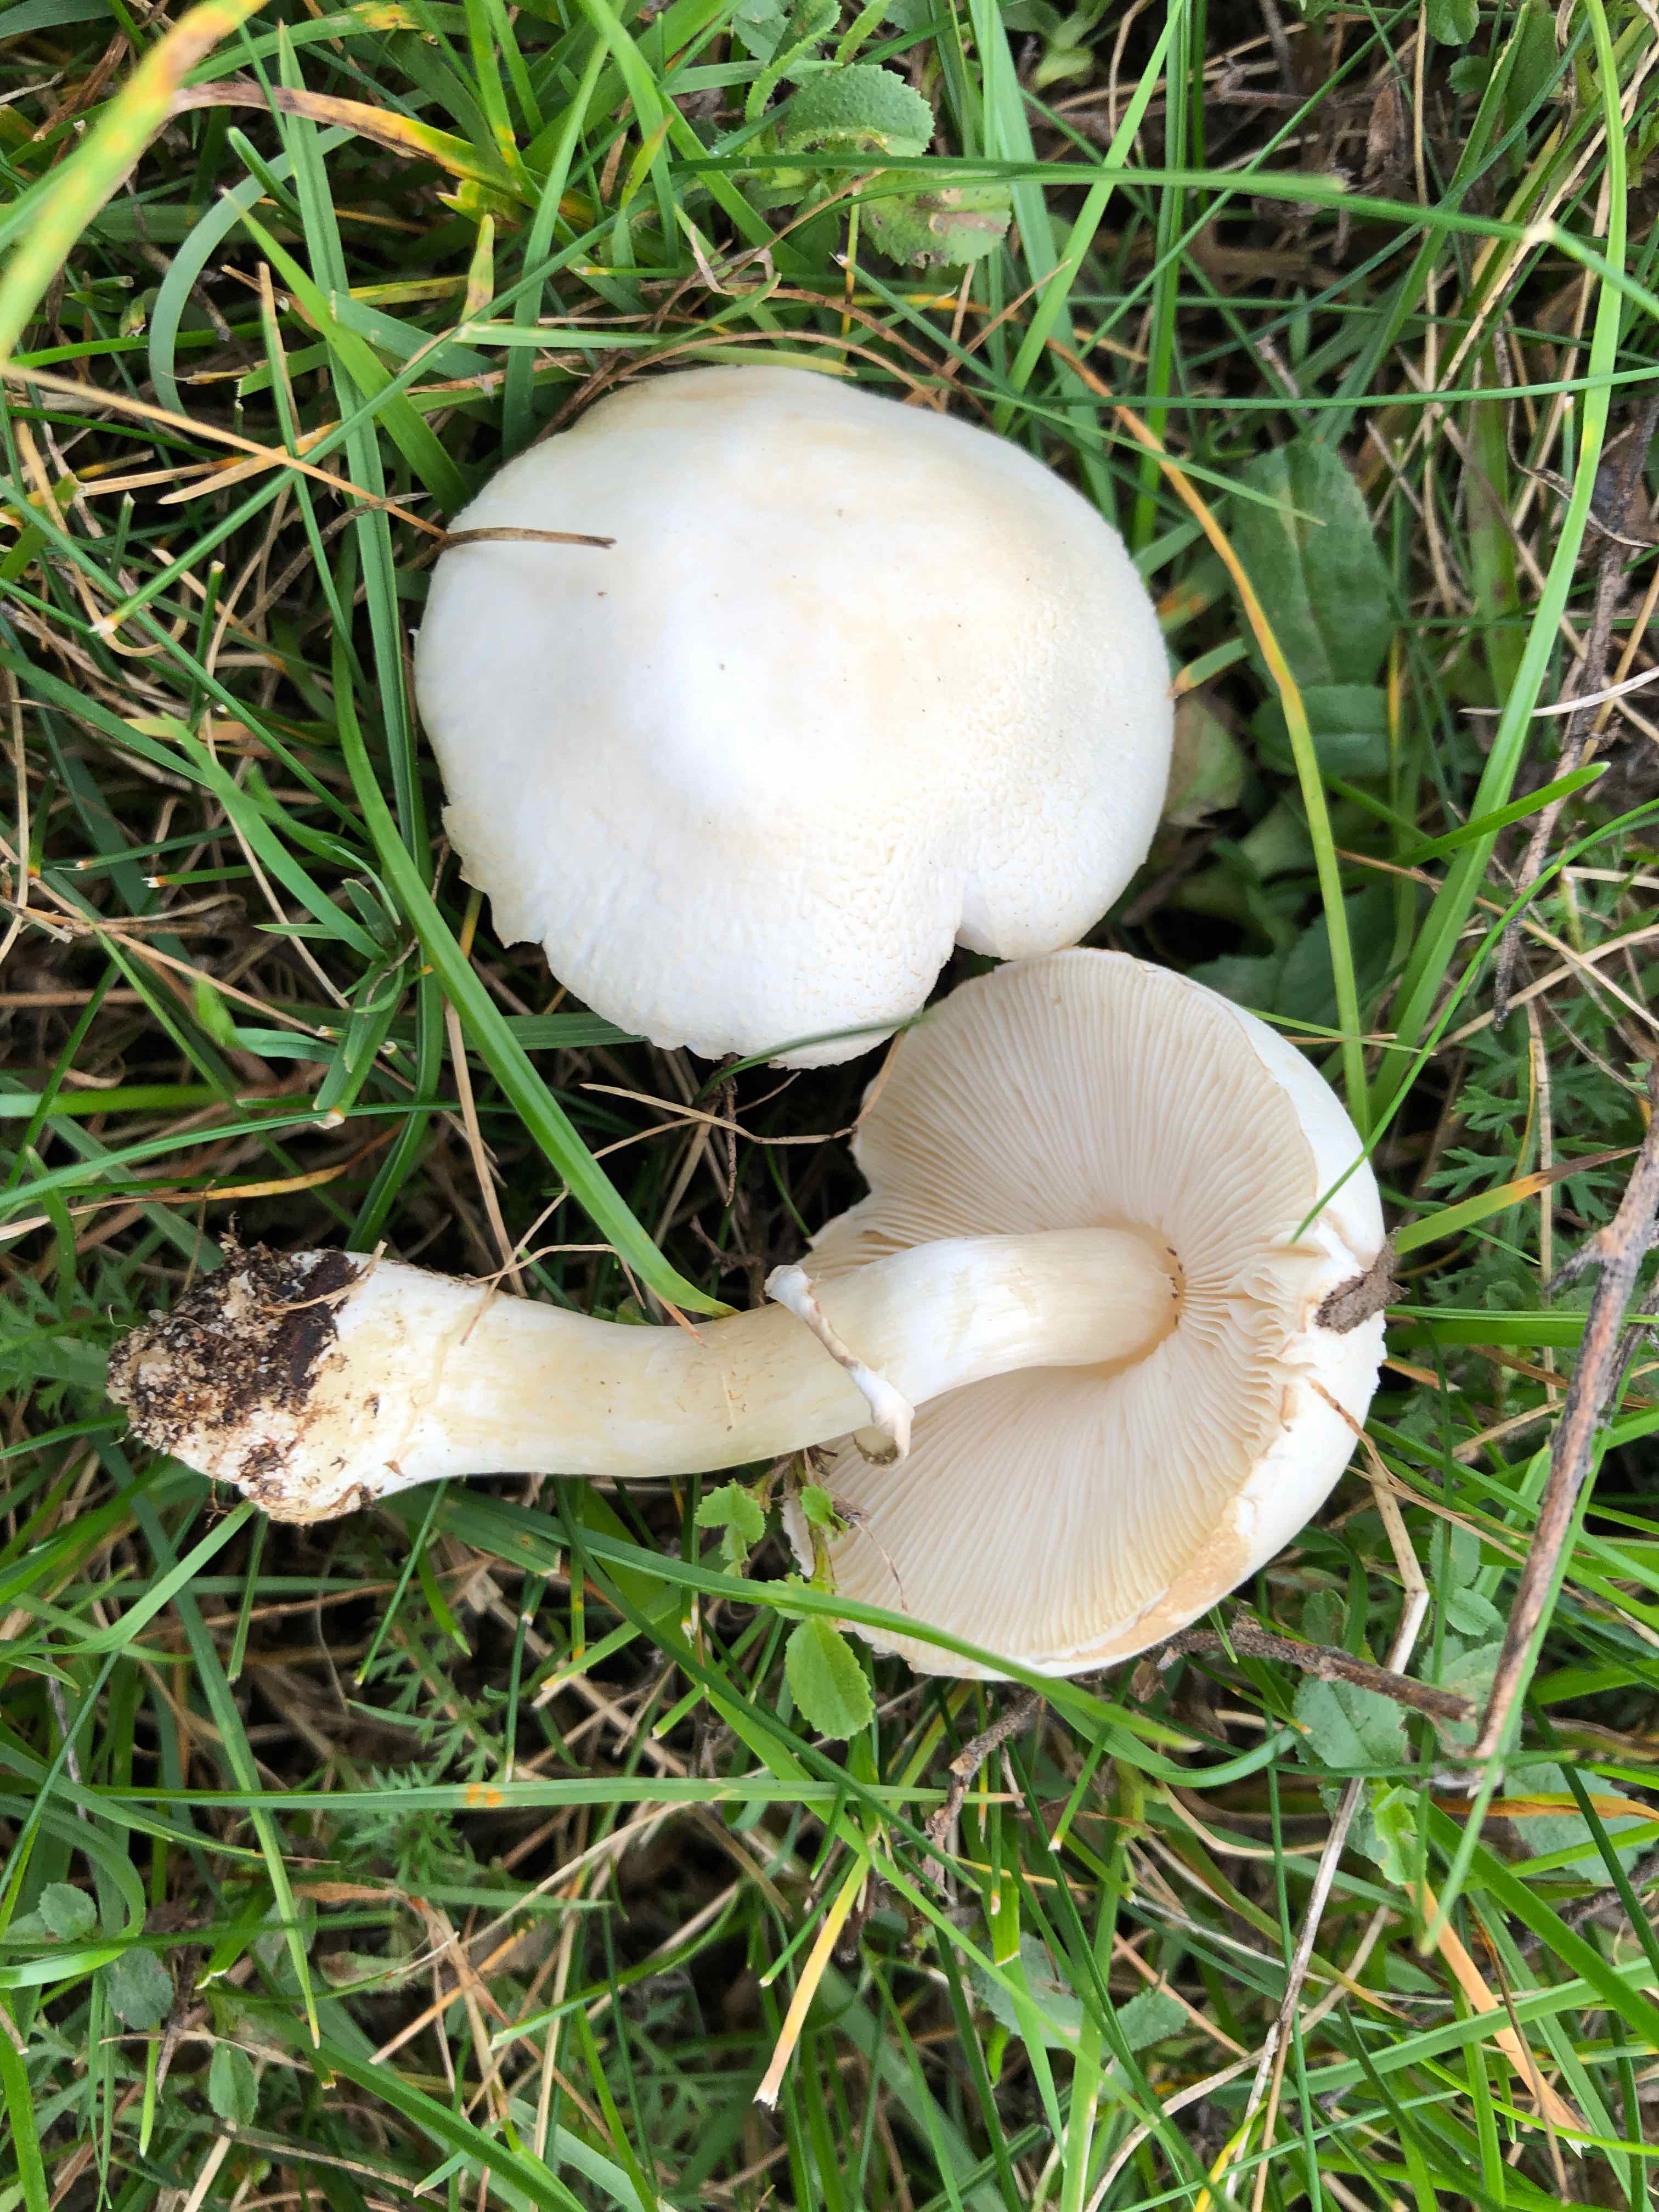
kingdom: Fungi
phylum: Basidiomycota
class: Agaricomycetes
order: Agaricales
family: Agaricaceae
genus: Leucoagaricus
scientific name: Leucoagaricus leucothites
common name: rosabladet silkehat
